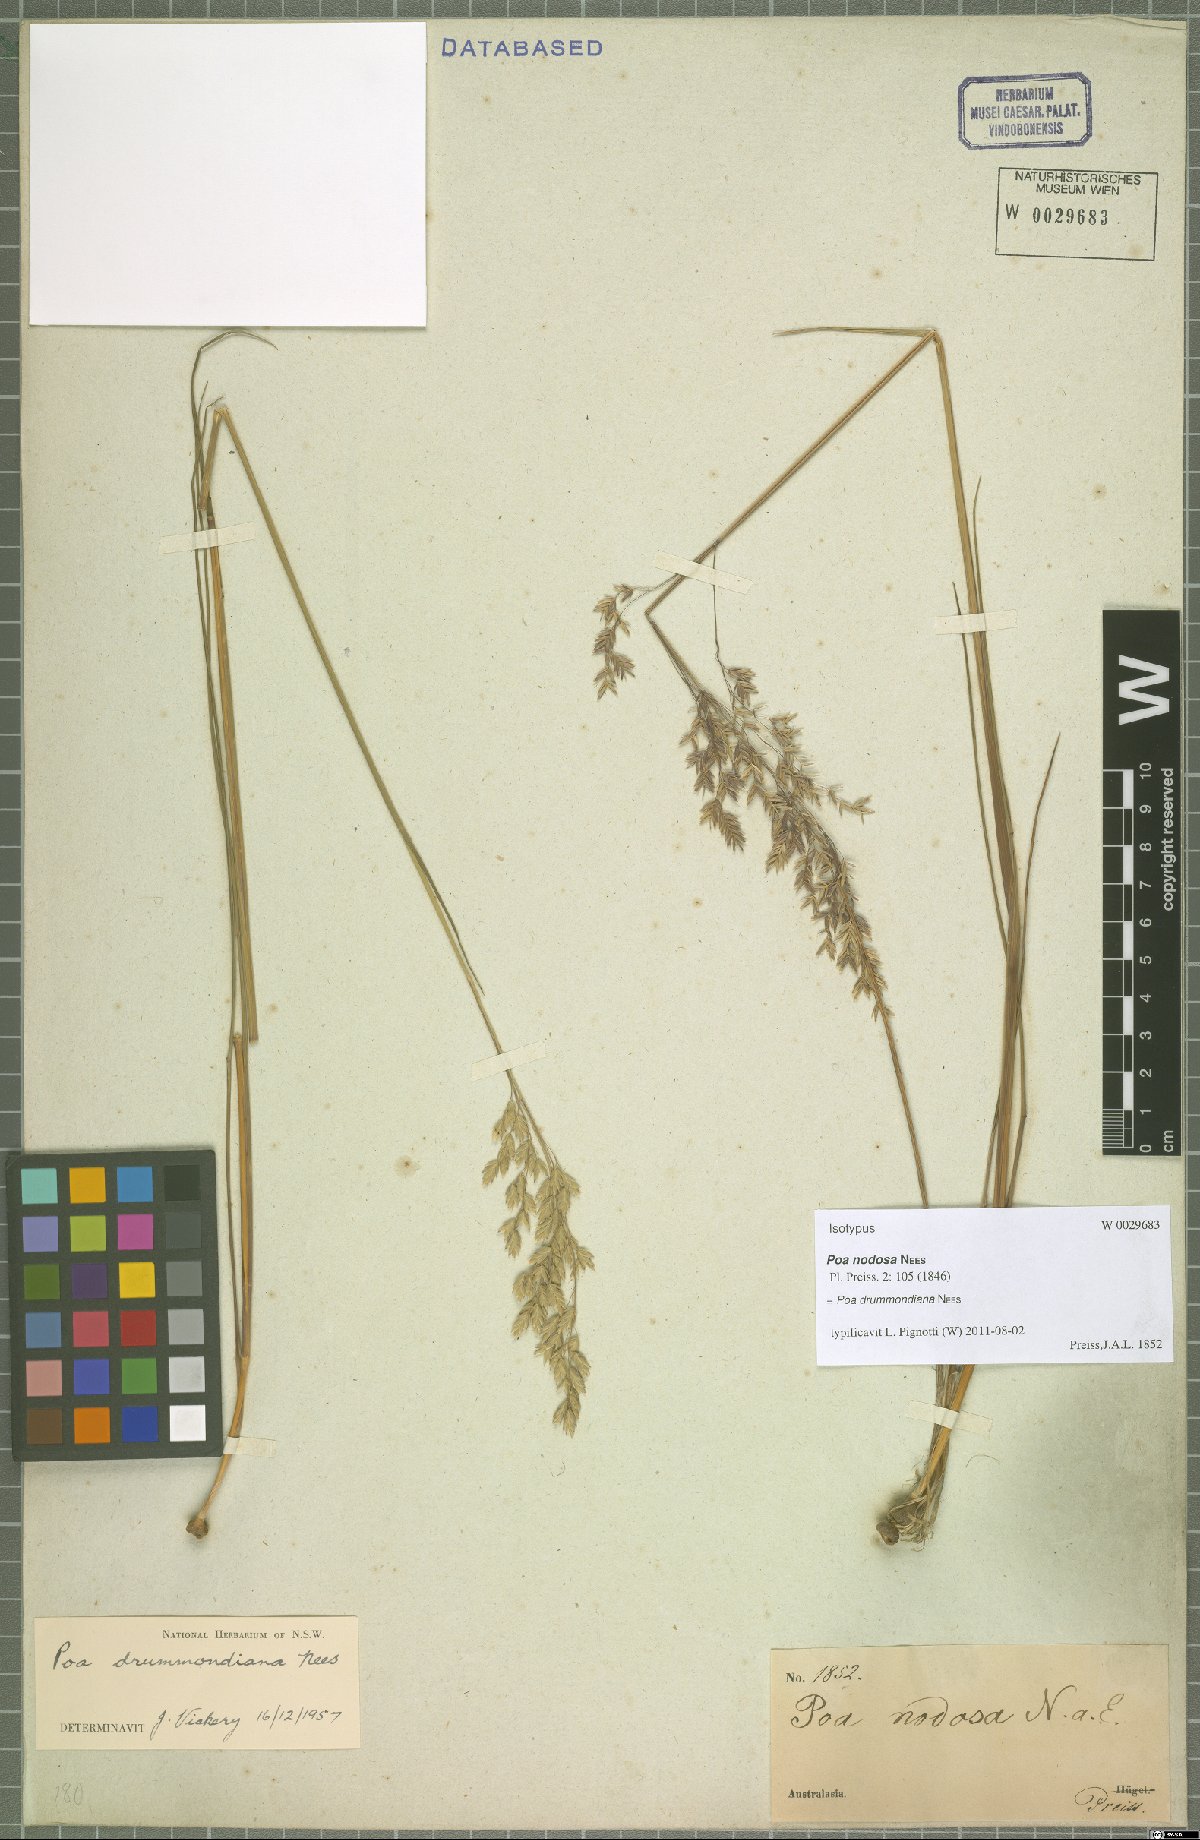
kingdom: Plantae
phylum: Tracheophyta
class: Liliopsida
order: Poales
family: Poaceae
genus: Poa
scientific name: Poa drummondiana
